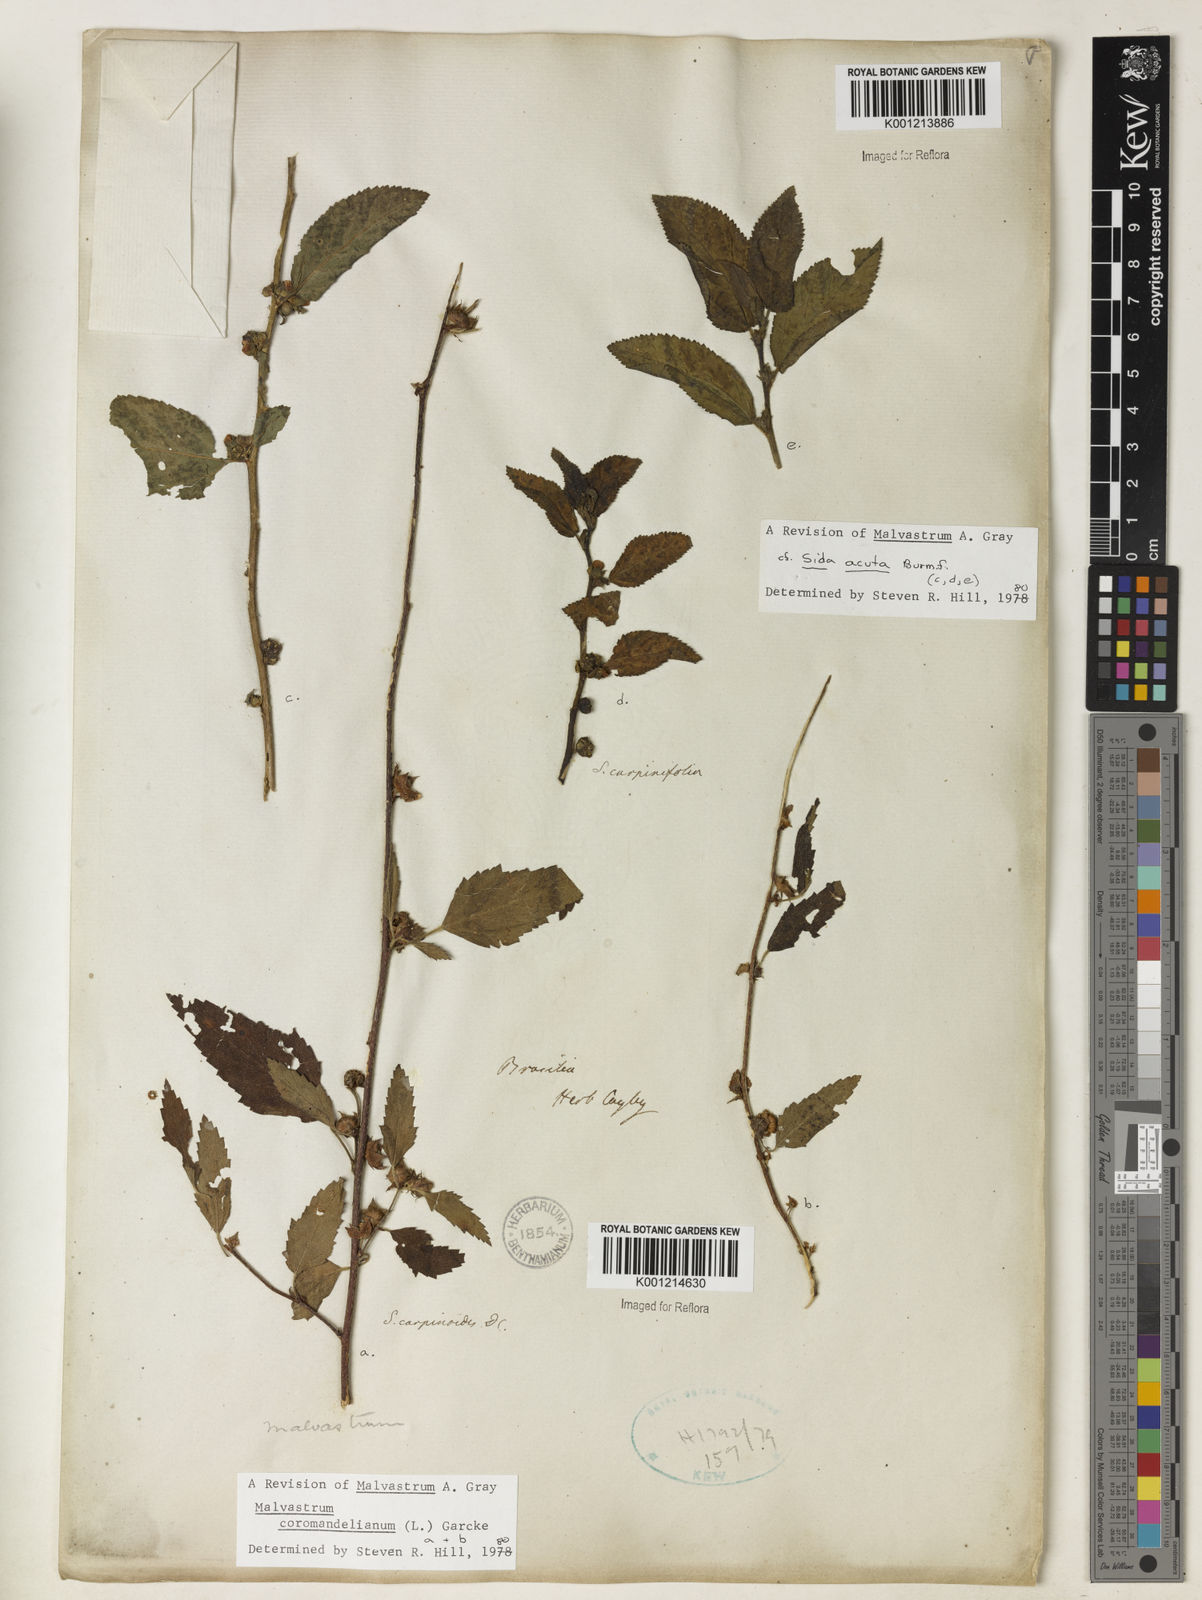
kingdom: Plantae
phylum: Tracheophyta
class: Magnoliopsida
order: Malvales
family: Malvaceae
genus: Malvastrum
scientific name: Malvastrum coromandelianum
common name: Threelobe false mallow
